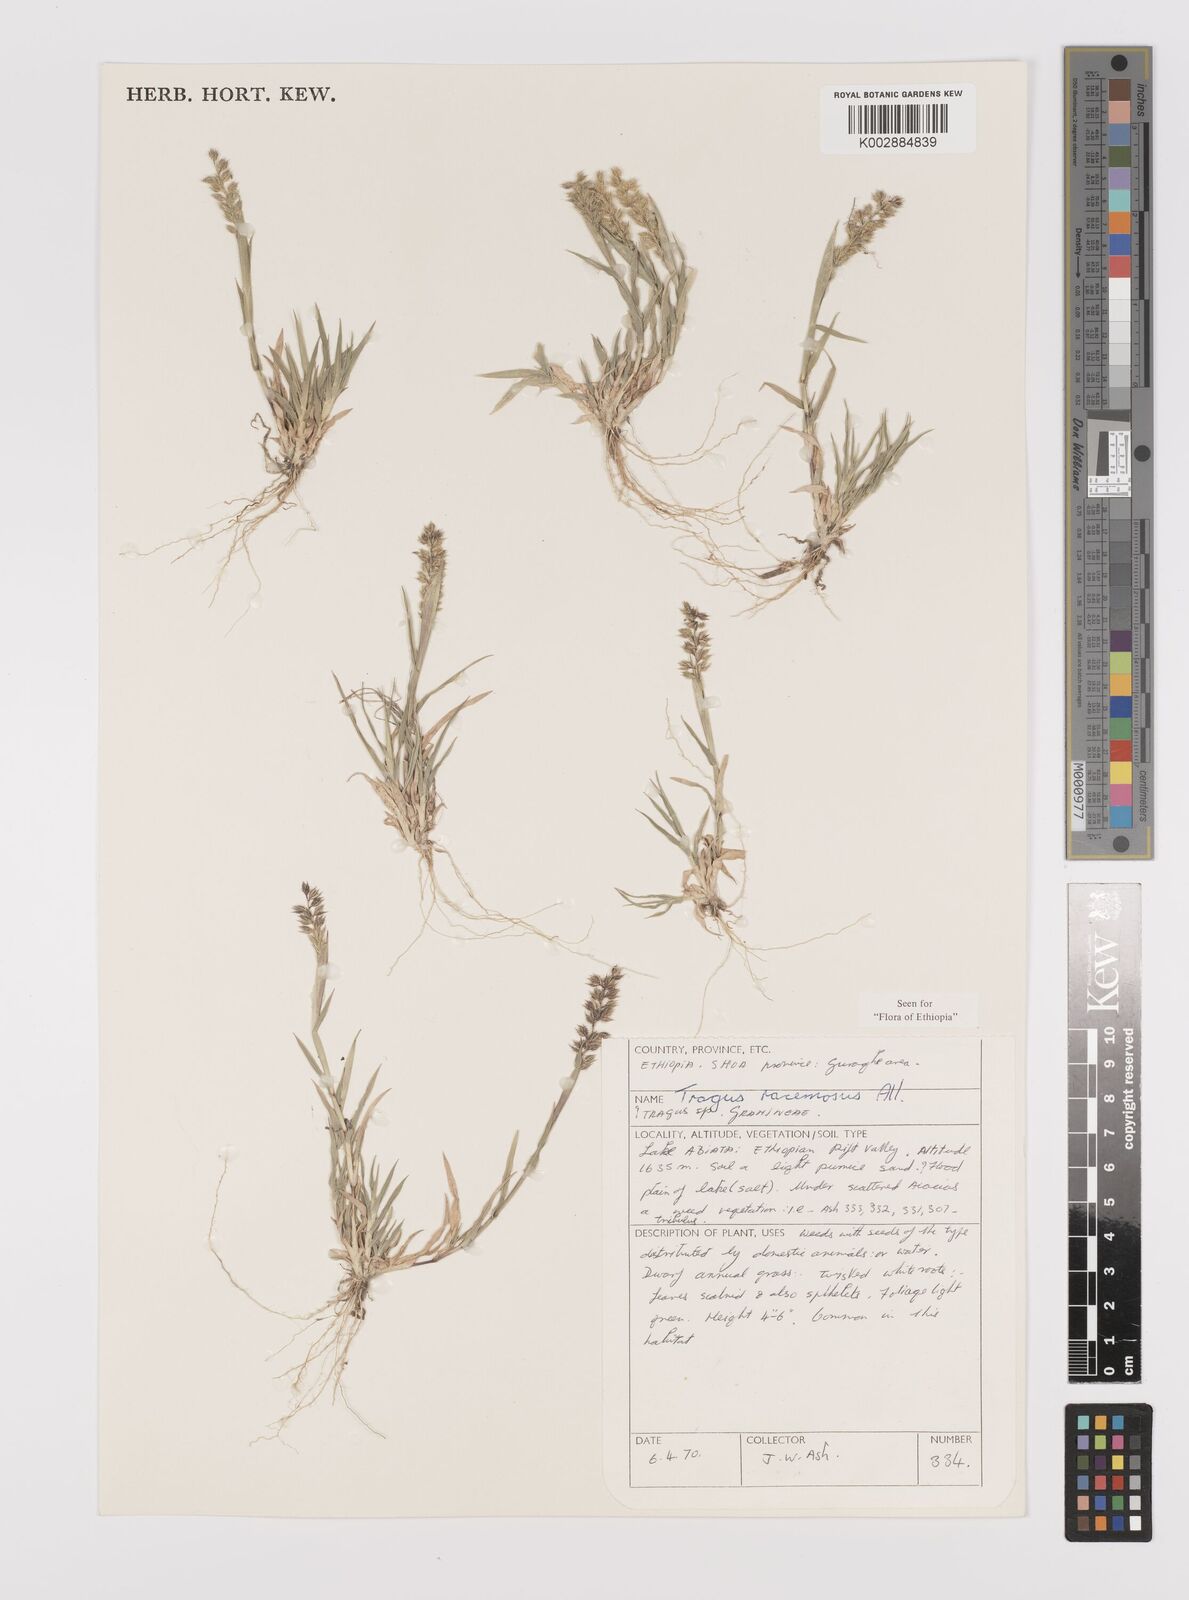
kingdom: Plantae
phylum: Tracheophyta
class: Liliopsida
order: Poales
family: Poaceae
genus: Tragus
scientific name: Tragus racemosus
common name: European bur-grass
